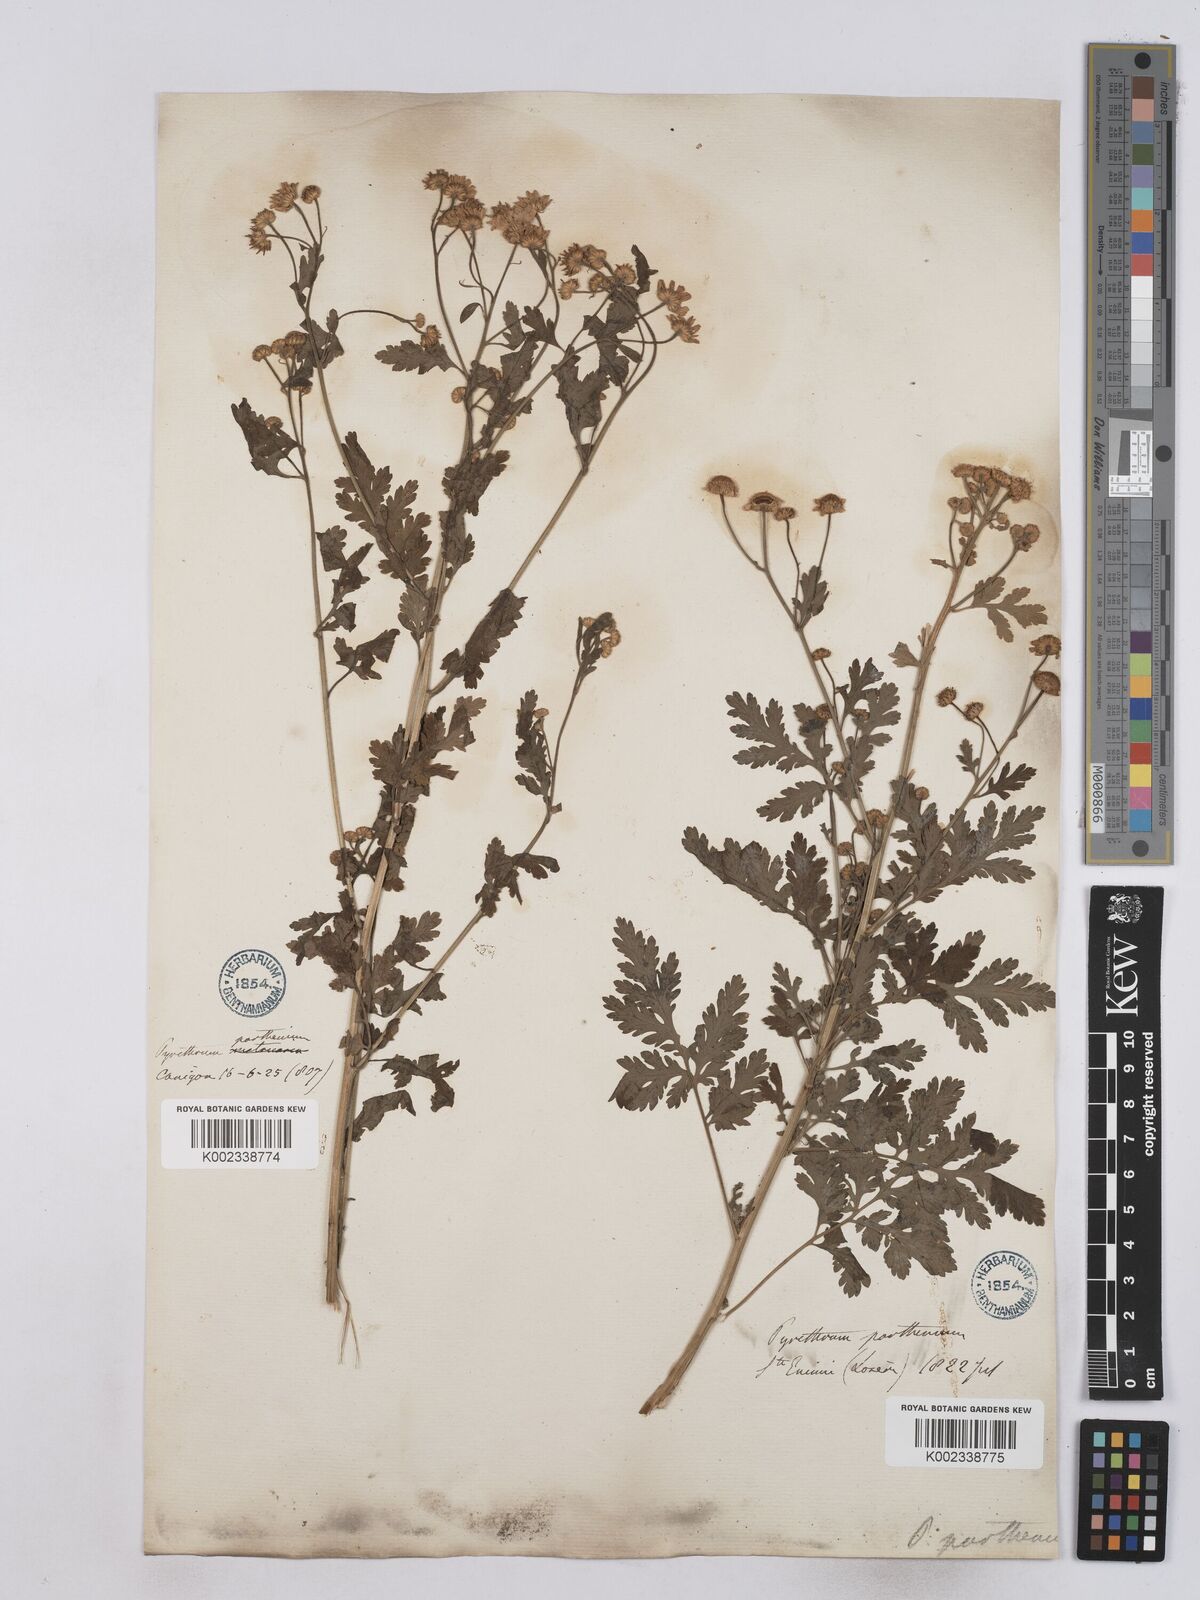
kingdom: Plantae
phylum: Tracheophyta
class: Magnoliopsida
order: Asterales
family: Asteraceae
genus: Tanacetum
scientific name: Tanacetum parthenium
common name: Feverfew
